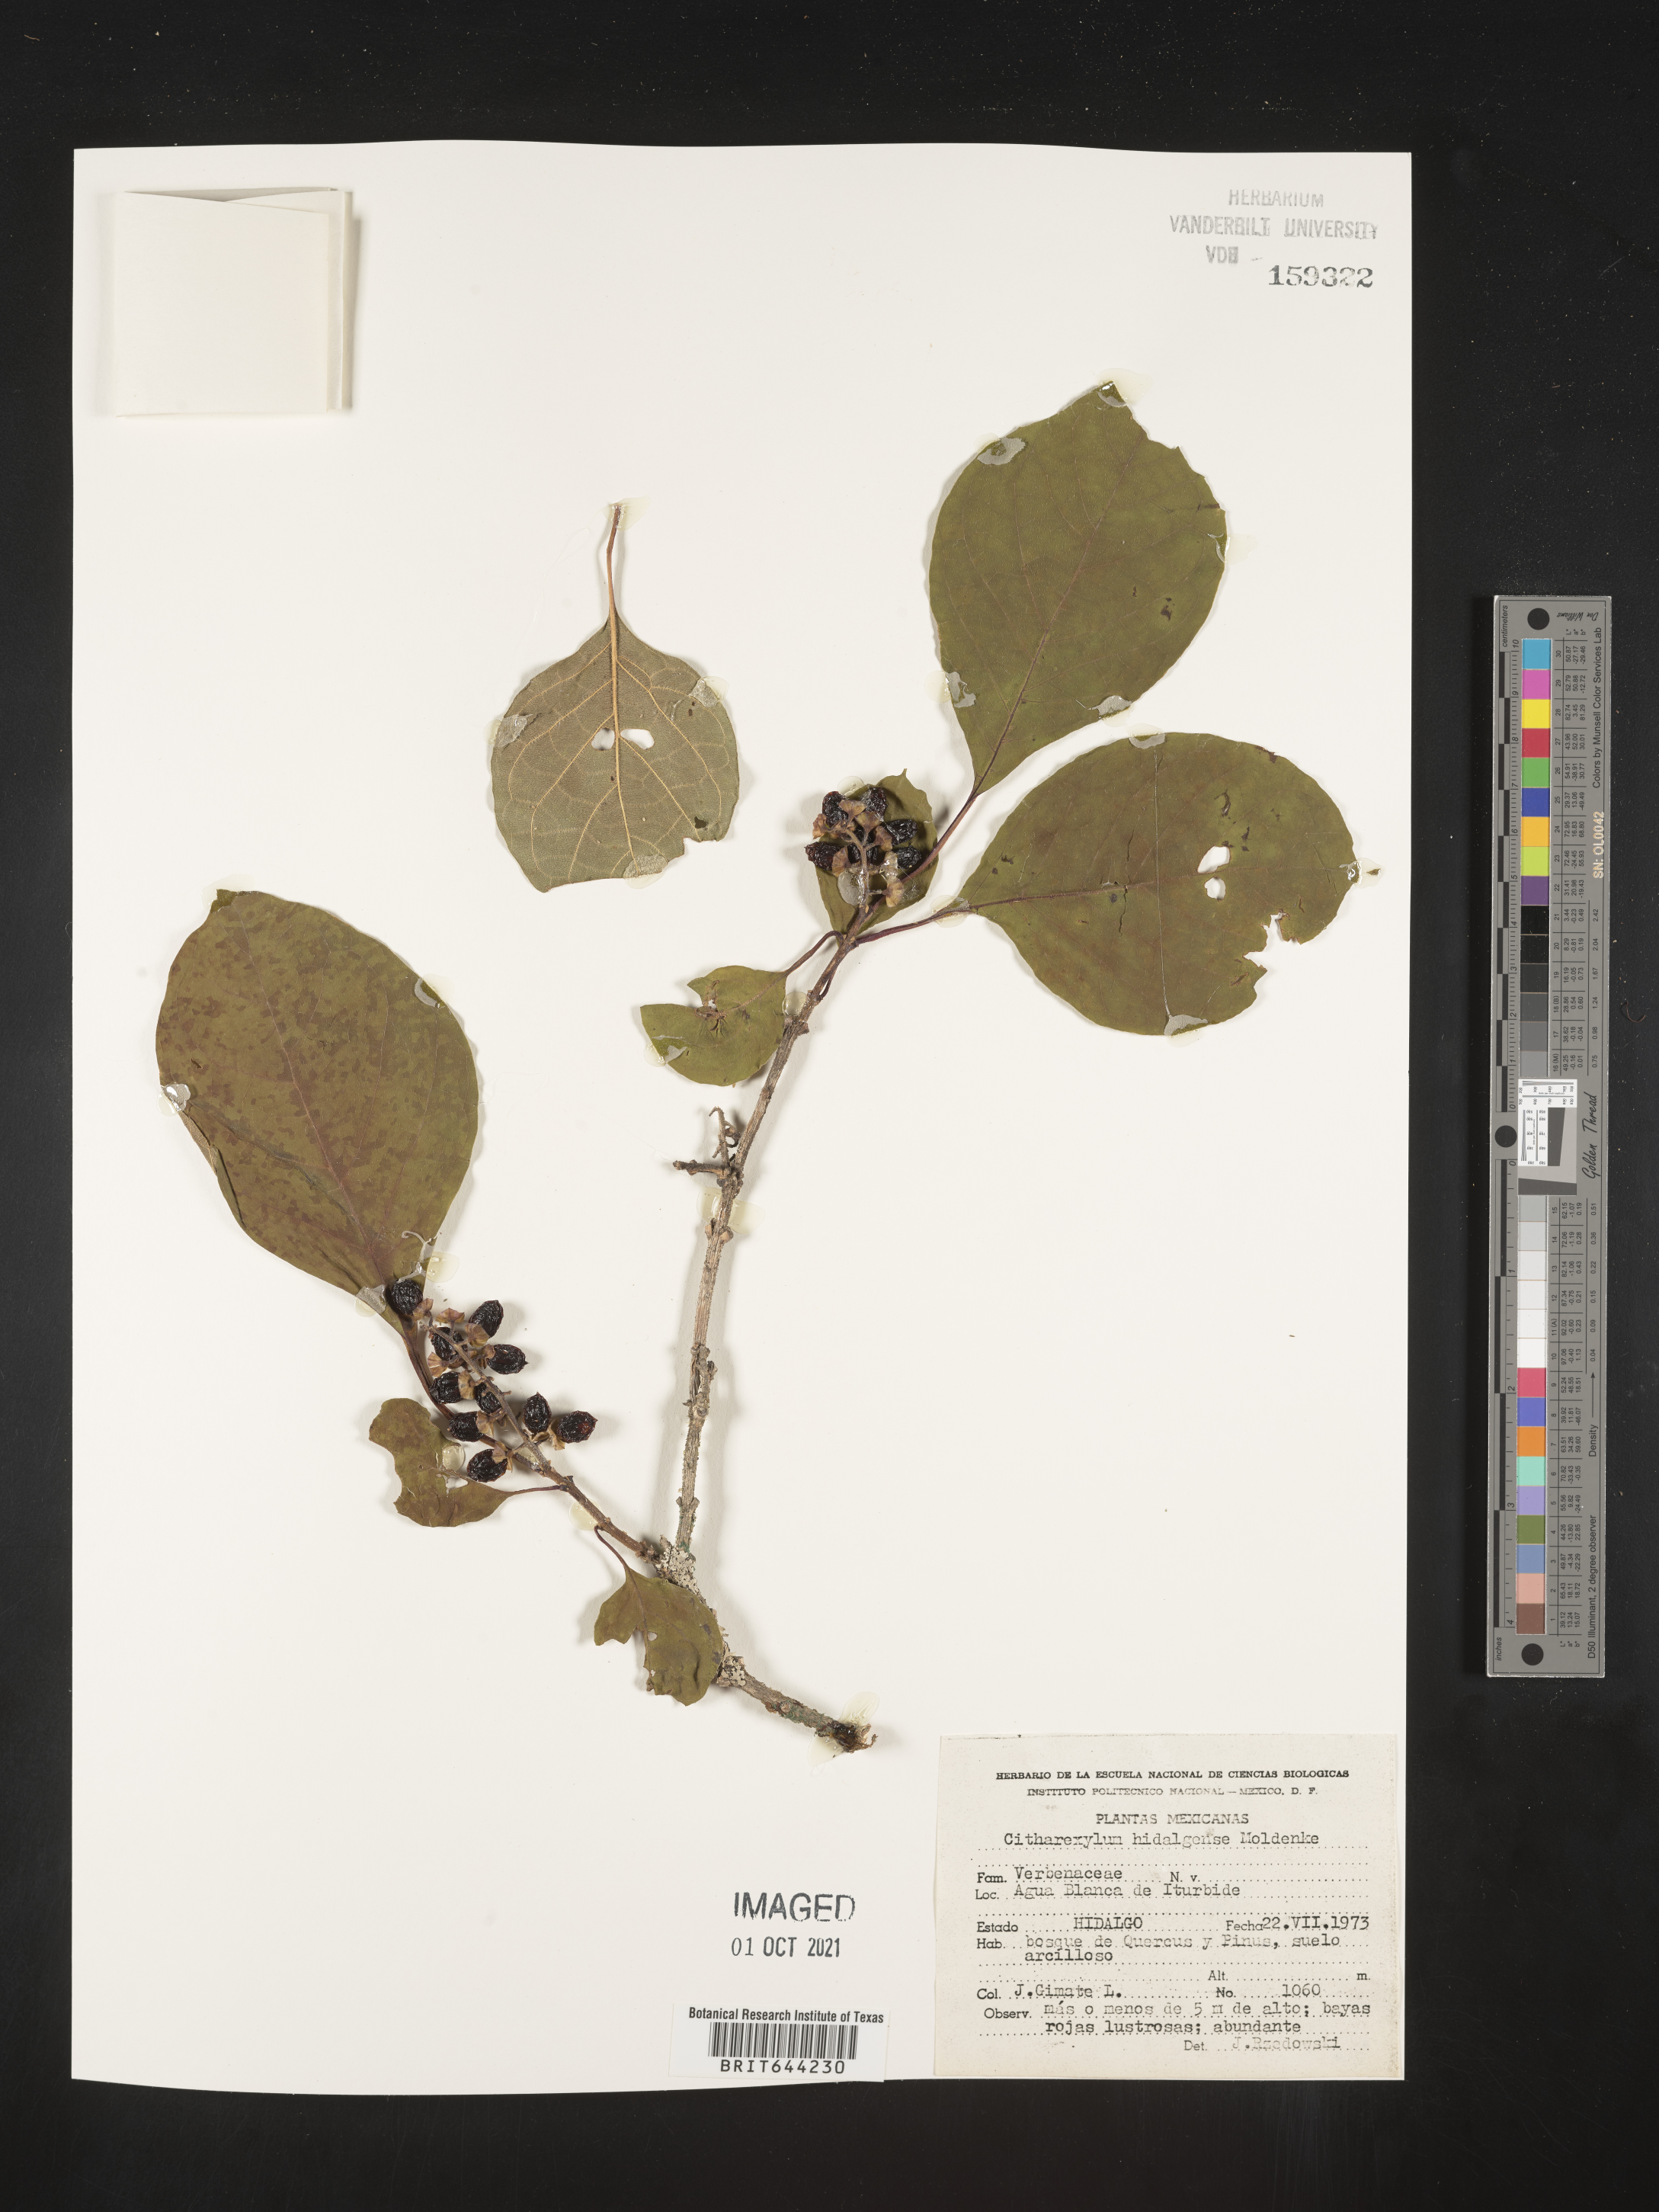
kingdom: Plantae
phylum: Tracheophyta
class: Magnoliopsida
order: Lamiales
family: Verbenaceae
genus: Citharexylum
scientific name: Citharexylum
